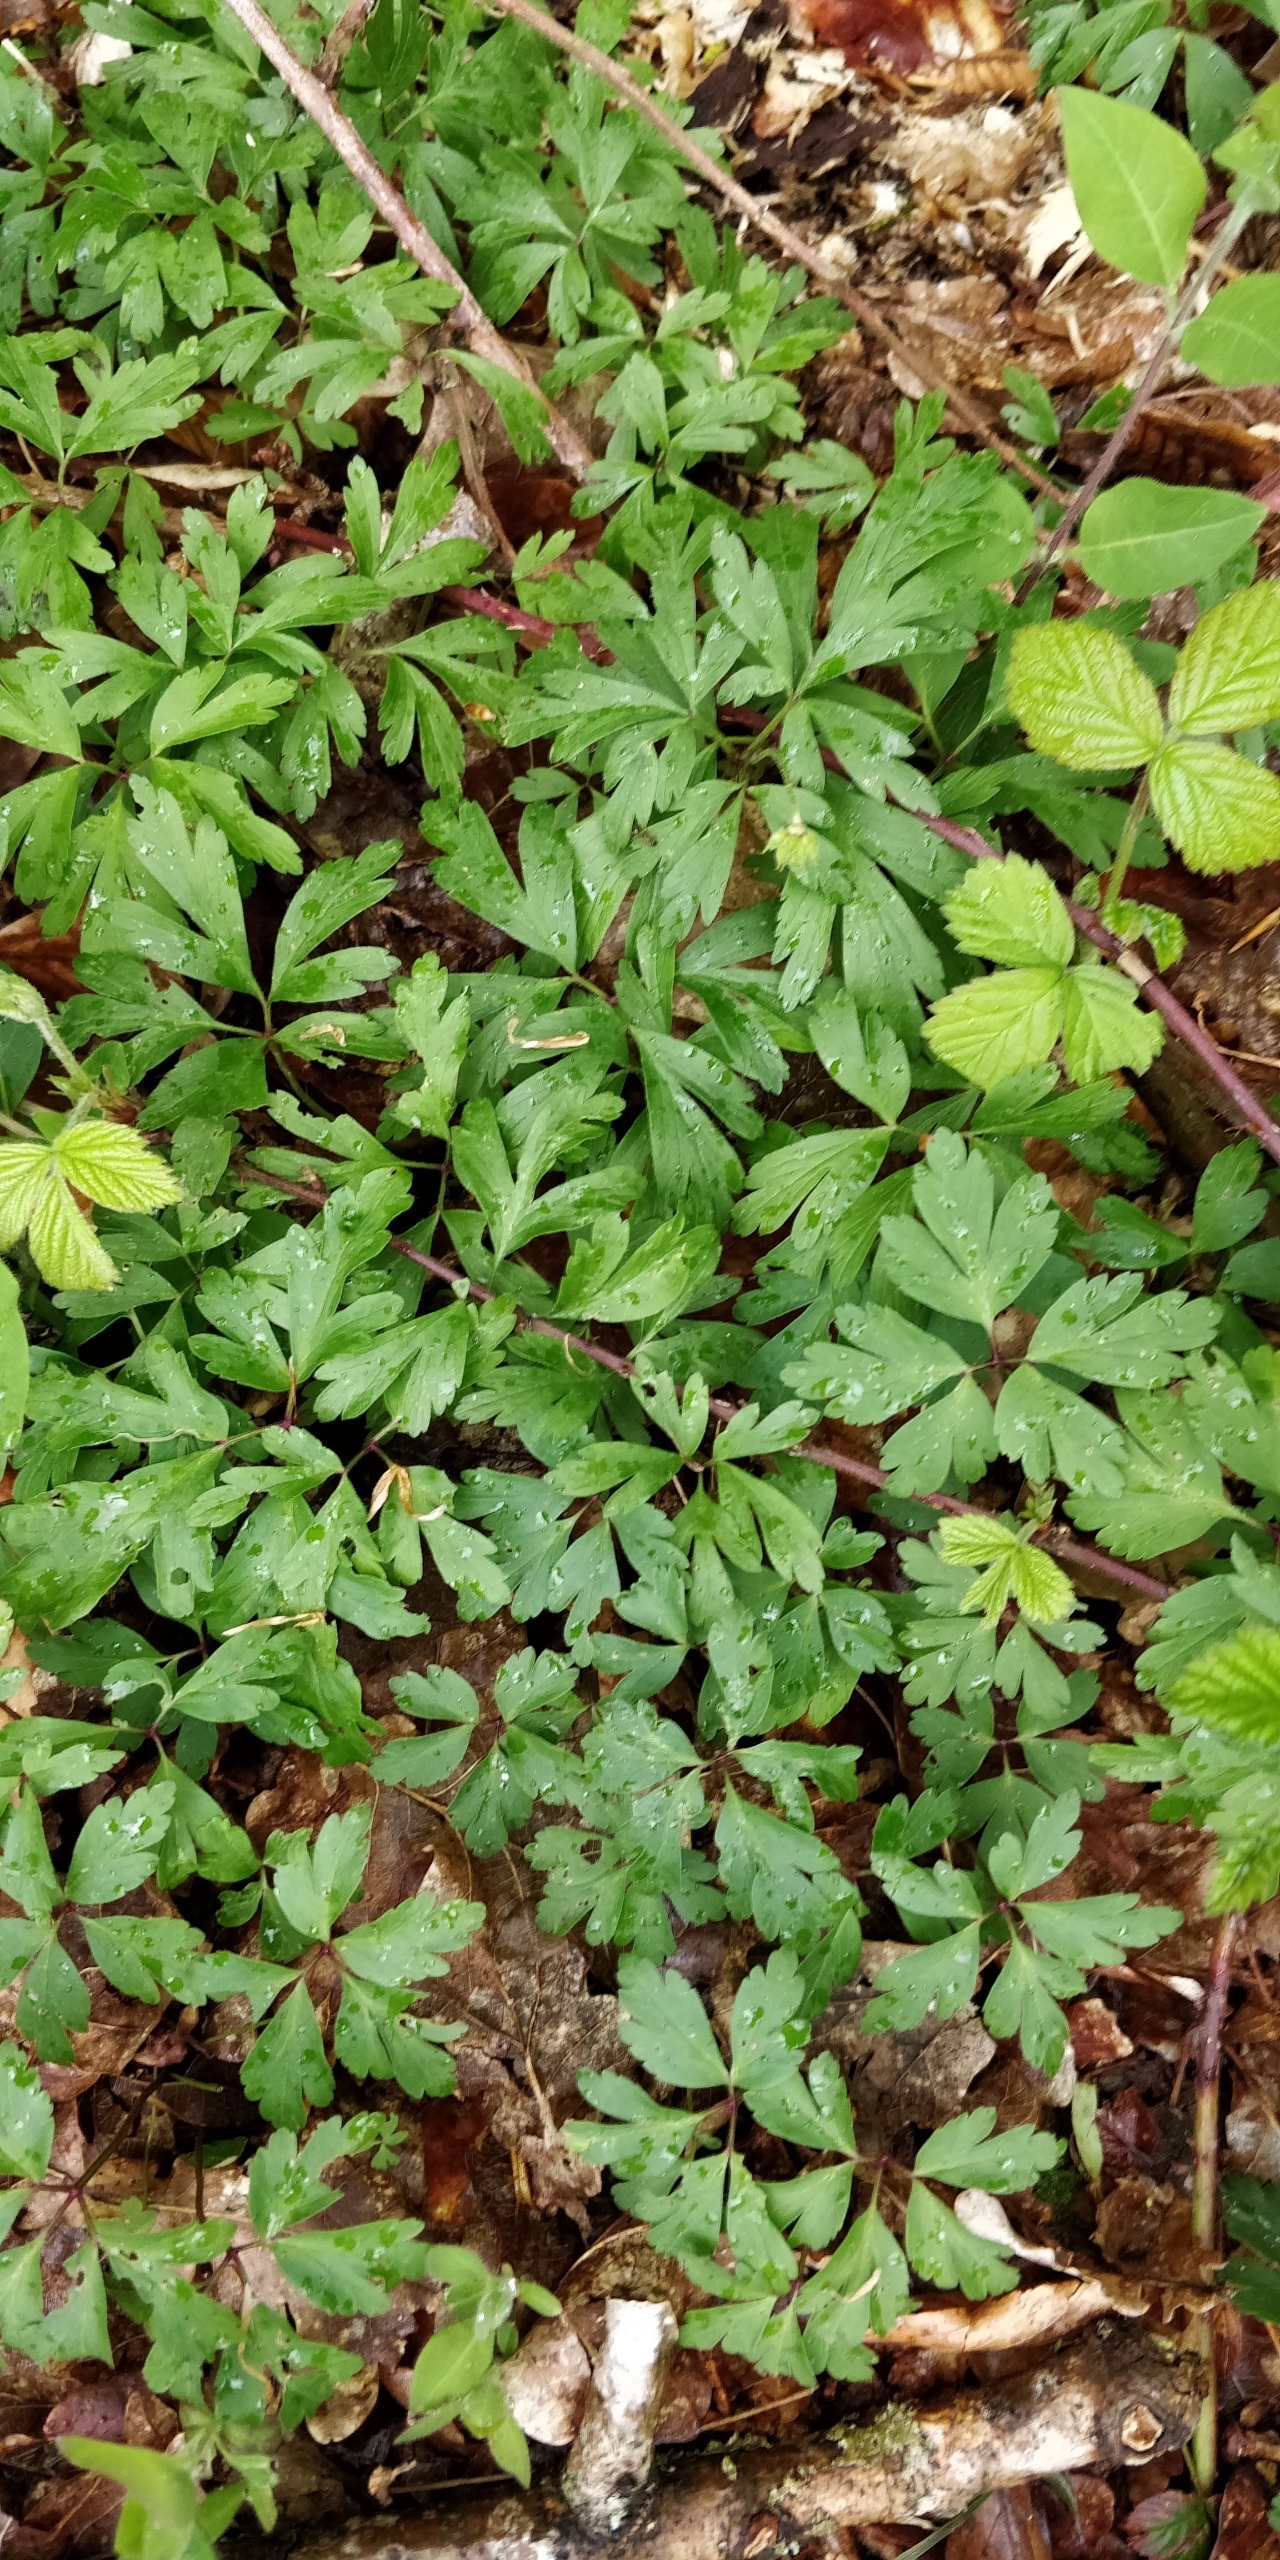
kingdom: Plantae
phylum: Tracheophyta
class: Magnoliopsida
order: Ranunculales
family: Ranunculaceae
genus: Anemone
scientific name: Anemone nemorosa
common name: Hvid anemone
